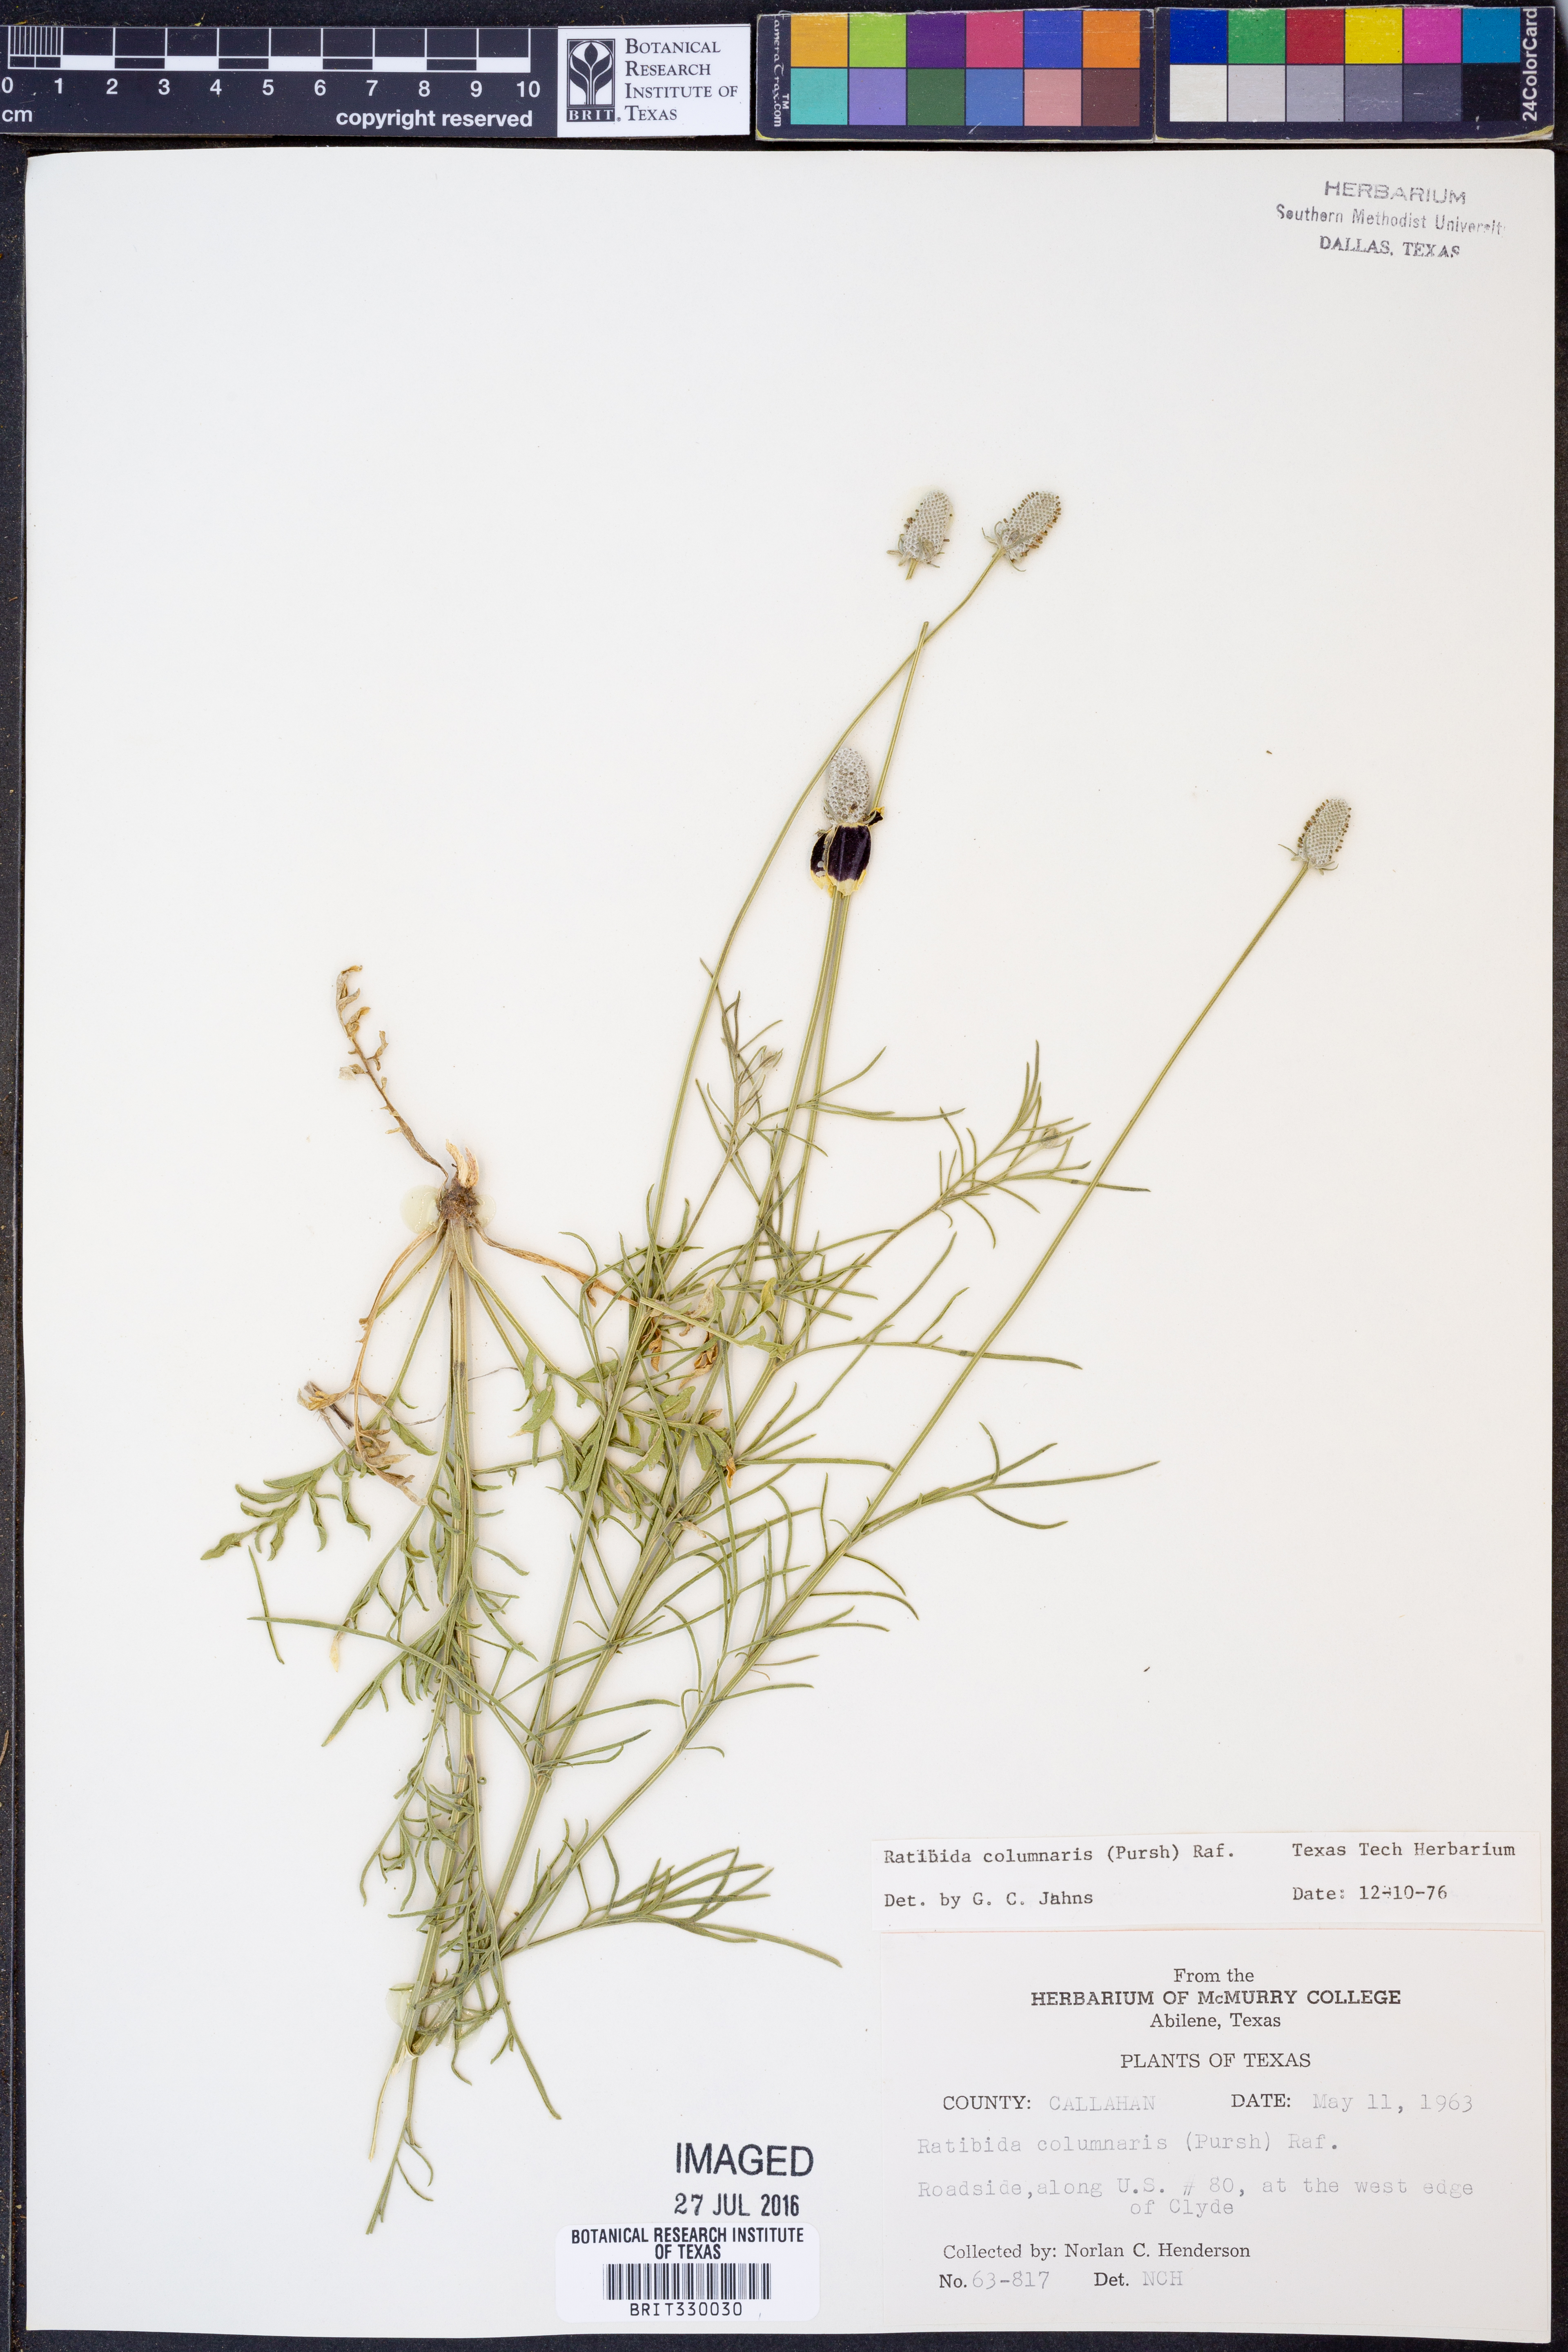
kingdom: Plantae
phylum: Tracheophyta
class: Magnoliopsida
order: Asterales
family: Asteraceae
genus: Ratibida
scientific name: Ratibida columnifera
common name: Prairie coneflower
